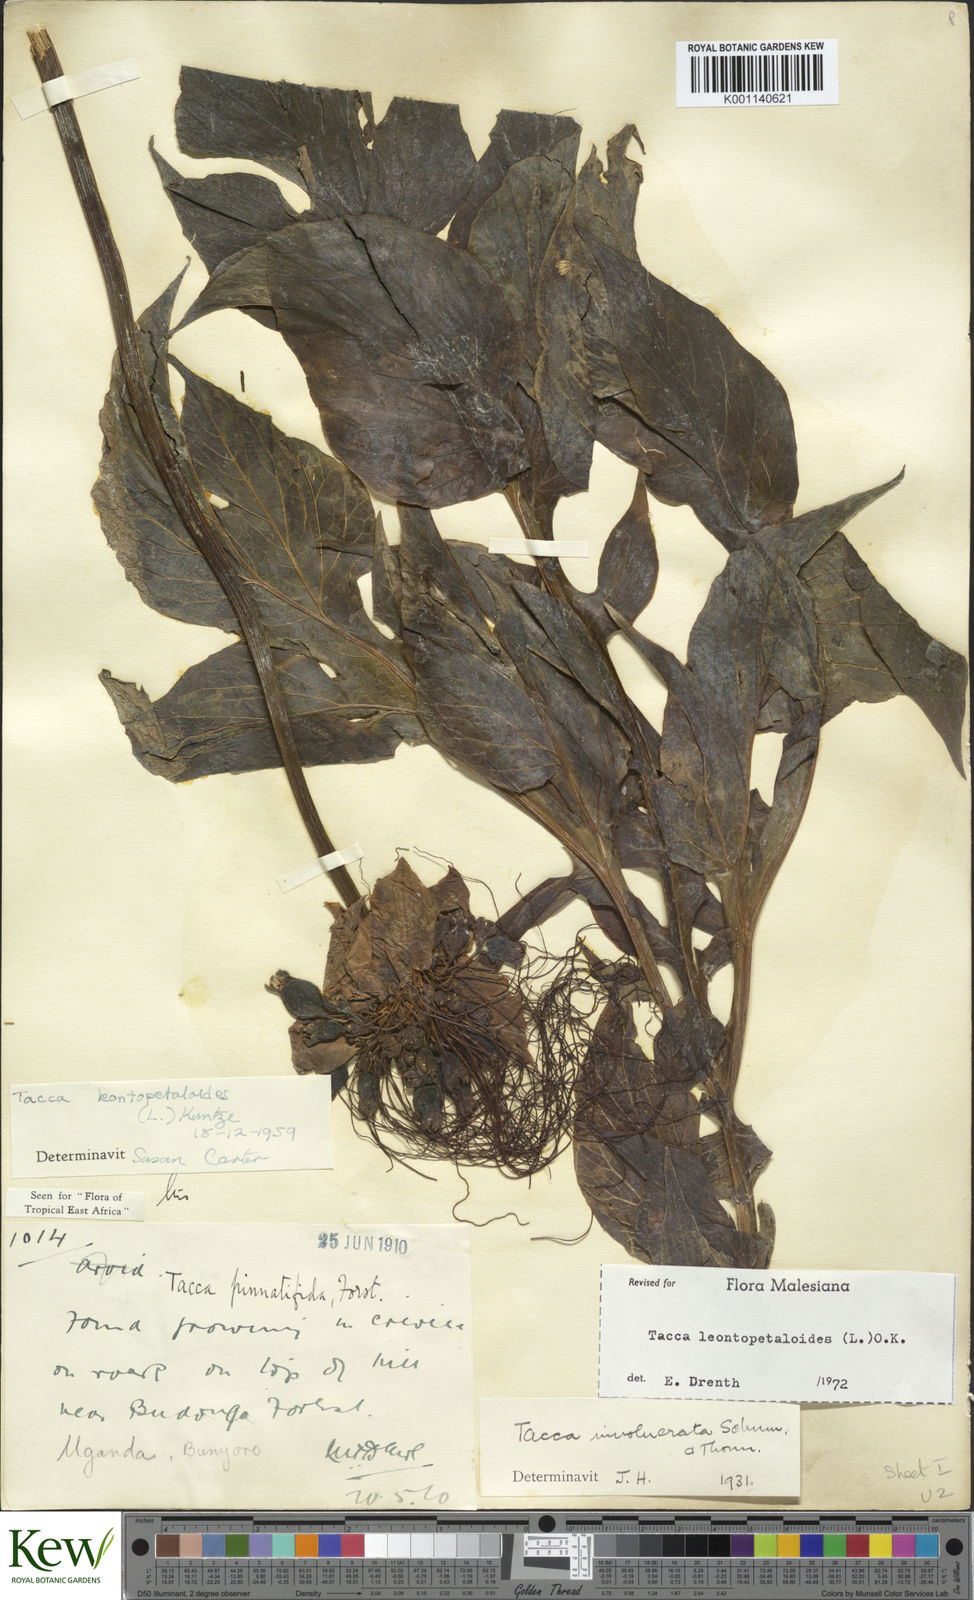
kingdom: Plantae
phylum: Tracheophyta
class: Liliopsida
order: Dioscoreales
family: Dioscoreaceae
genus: Tacca
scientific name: Tacca leontopetaloides
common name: Arrowroot
